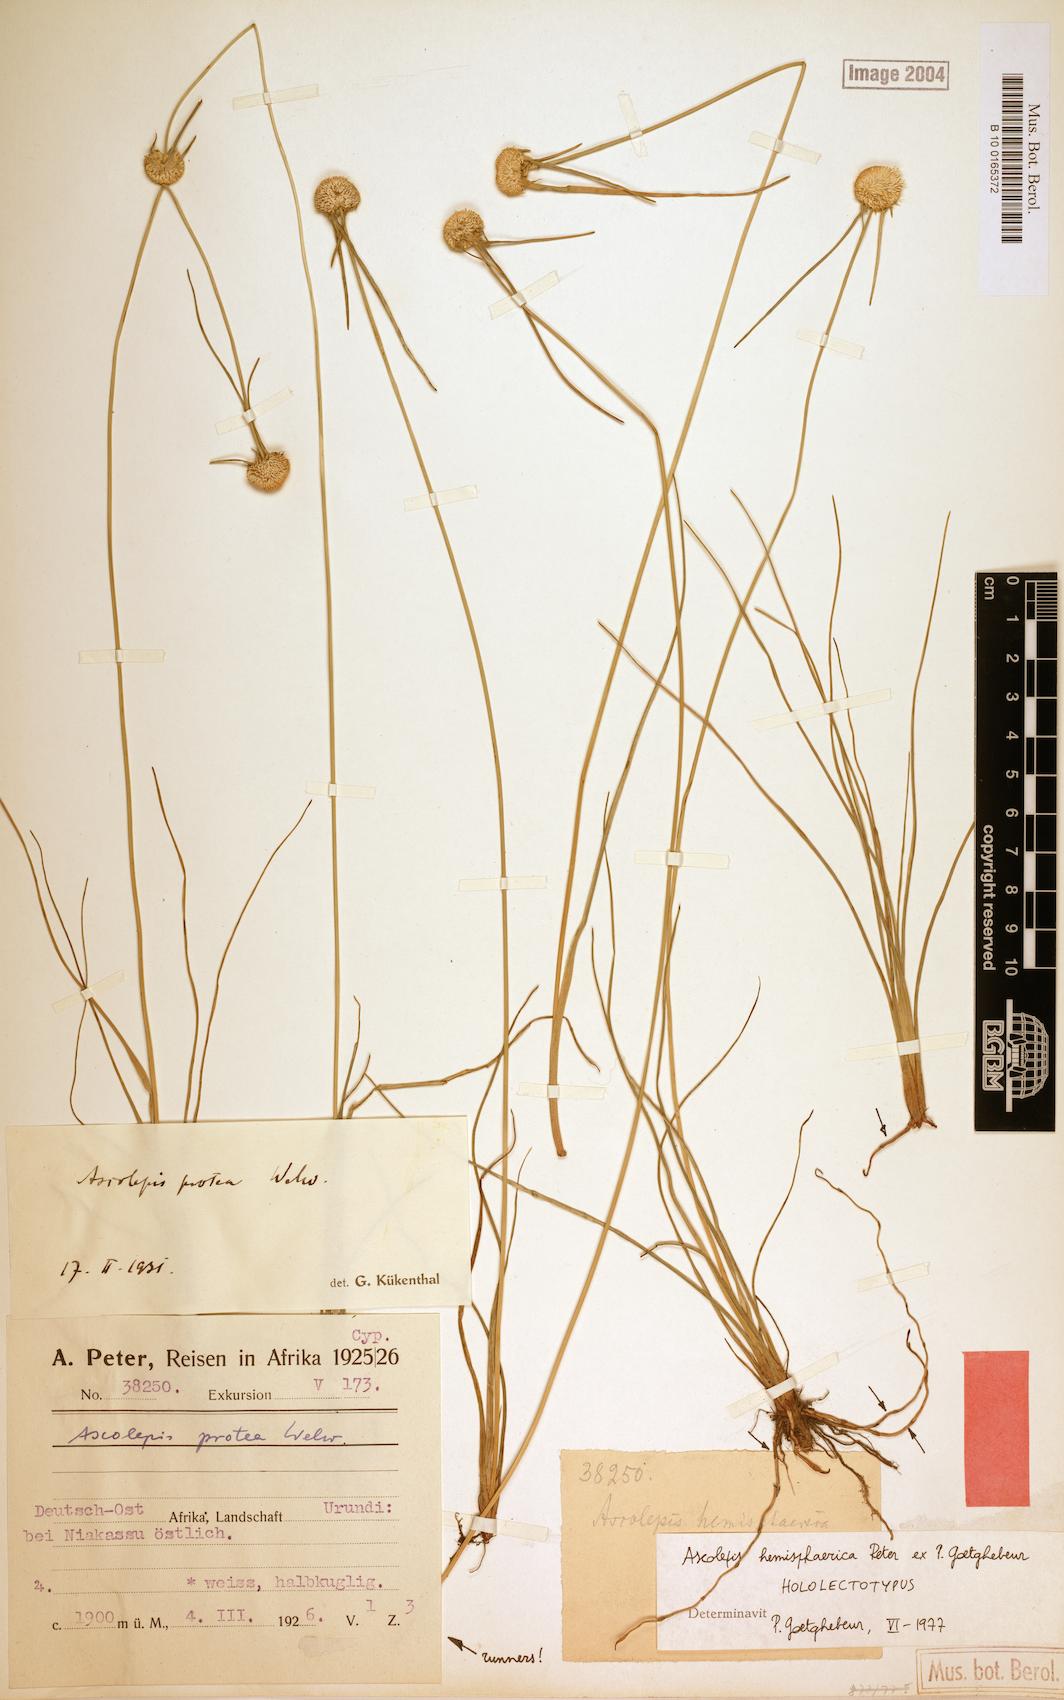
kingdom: Plantae
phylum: Tracheophyta
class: Liliopsida
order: Poales
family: Cyperaceae
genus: Cyperus
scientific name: Cyperus ascohemisphaericus
